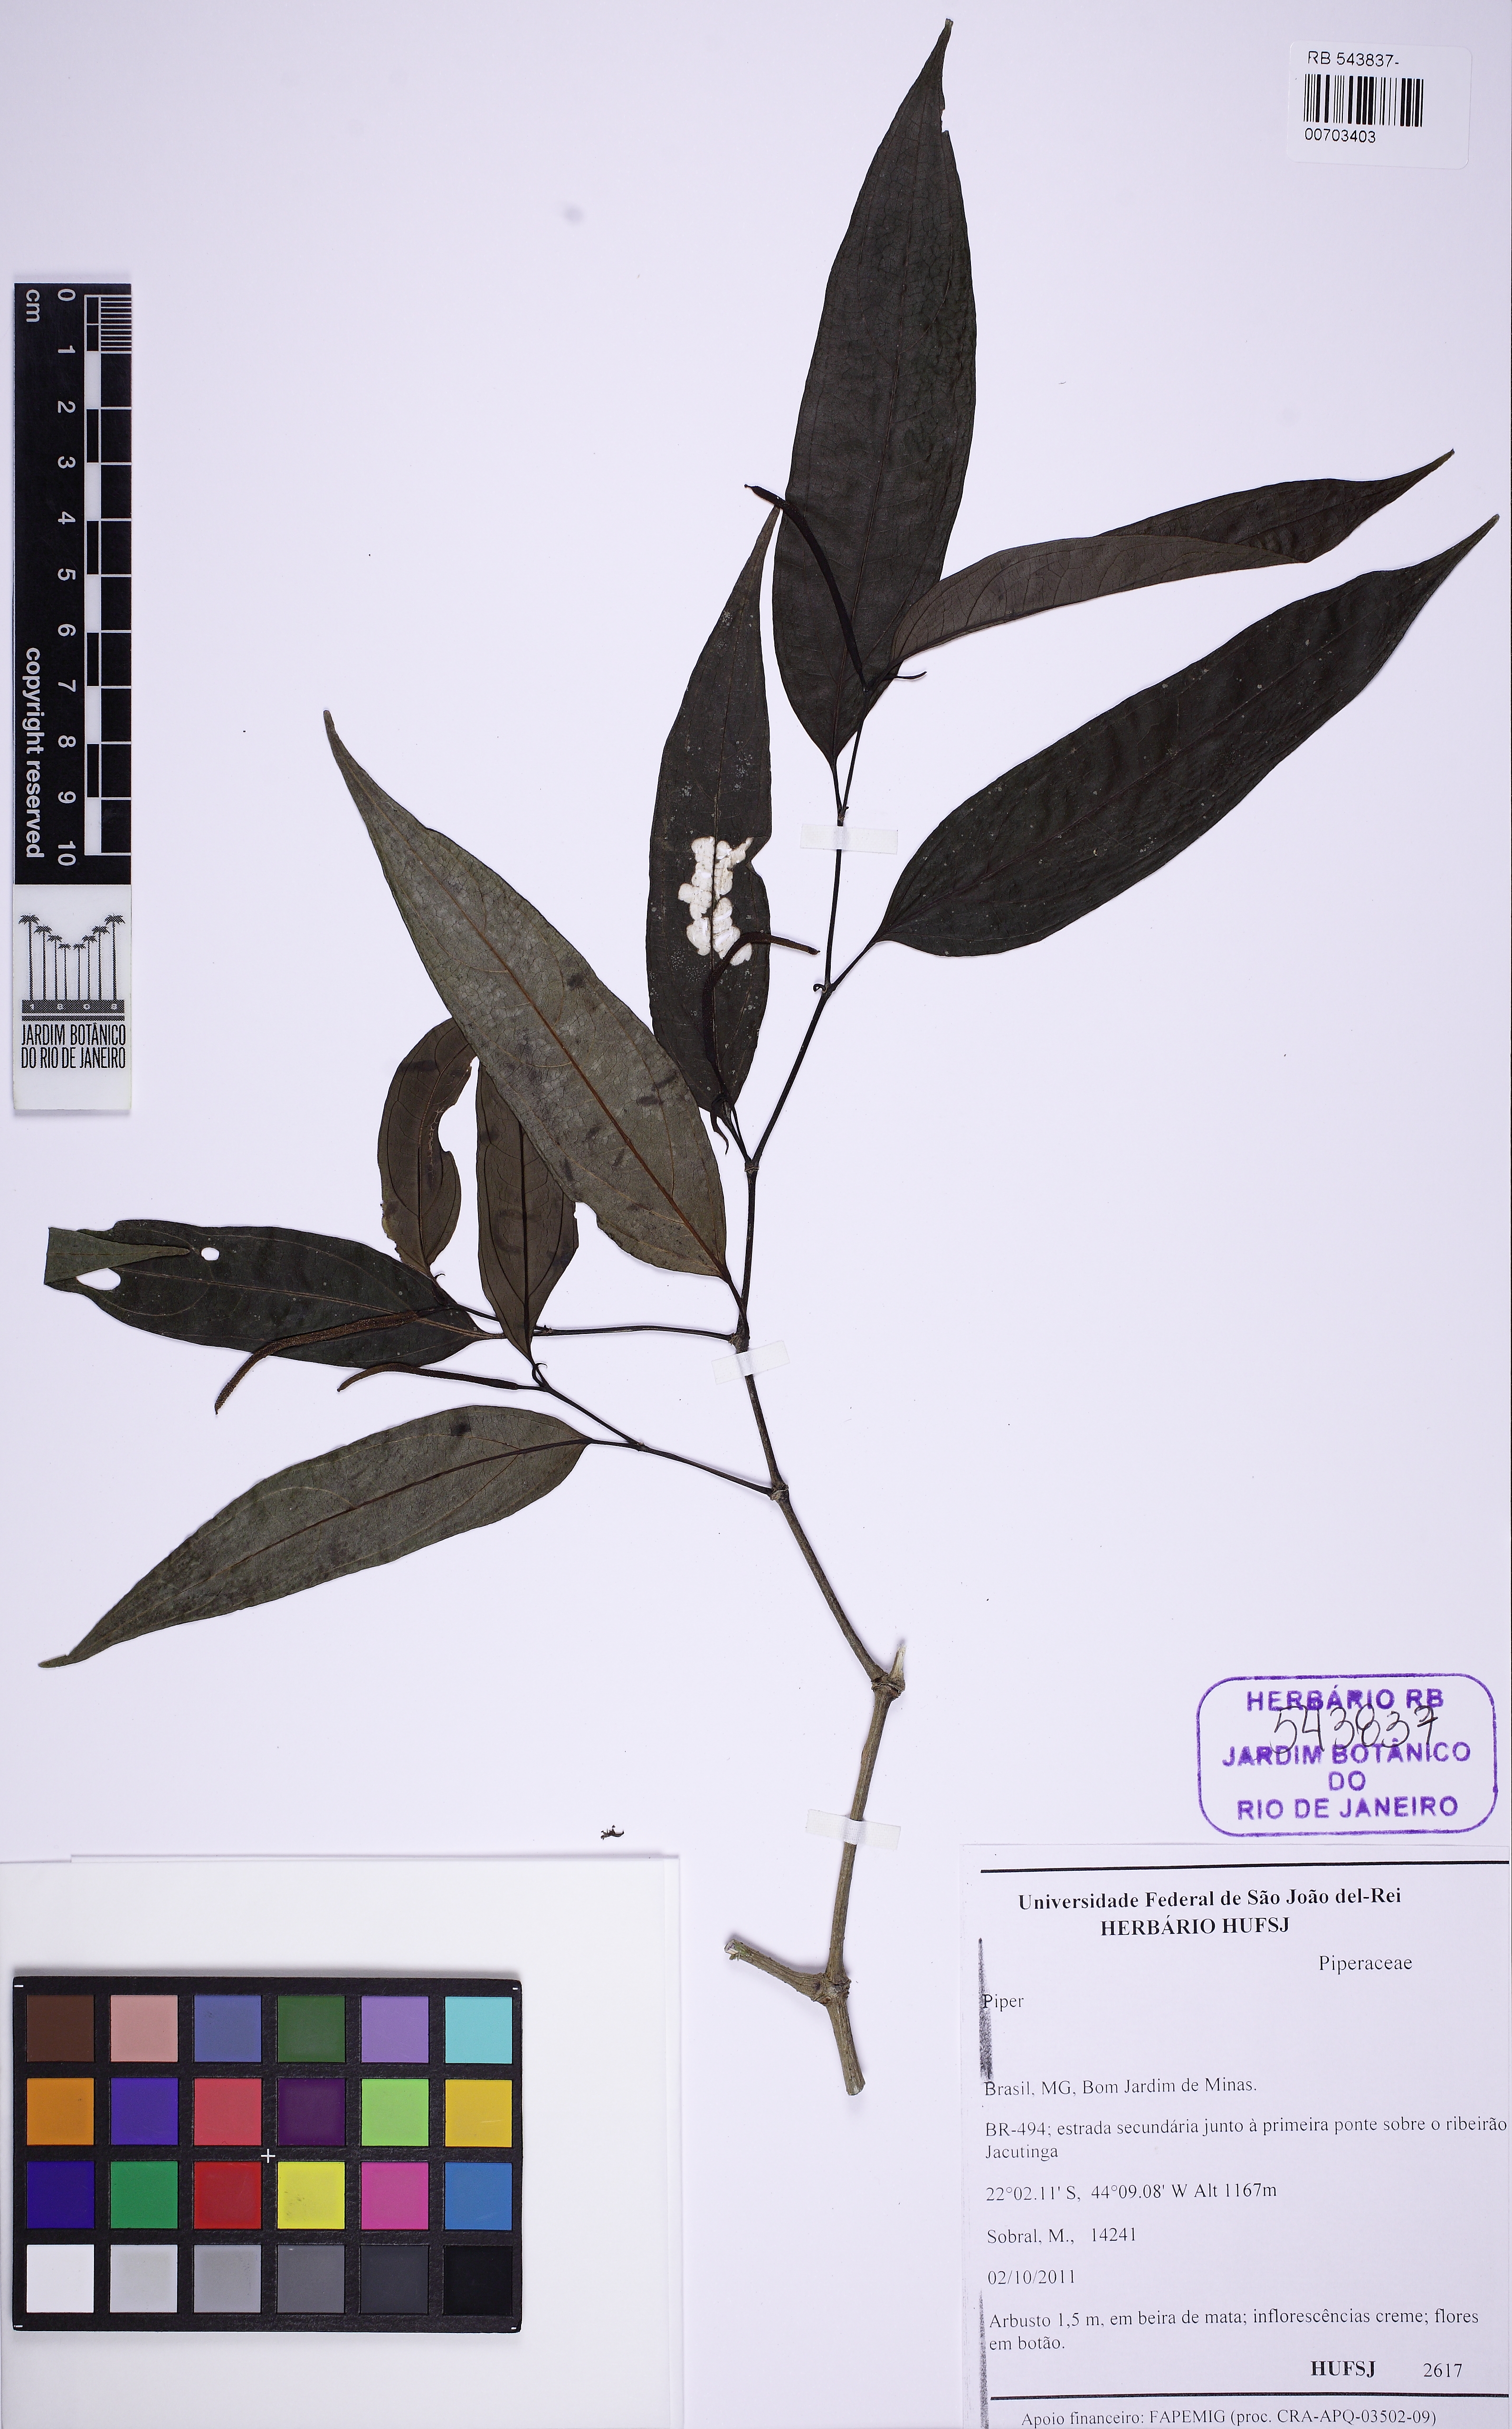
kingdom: Plantae
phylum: Tracheophyta
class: Magnoliopsida
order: Piperales
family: Piperaceae
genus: Piper
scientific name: Piper lepturum
